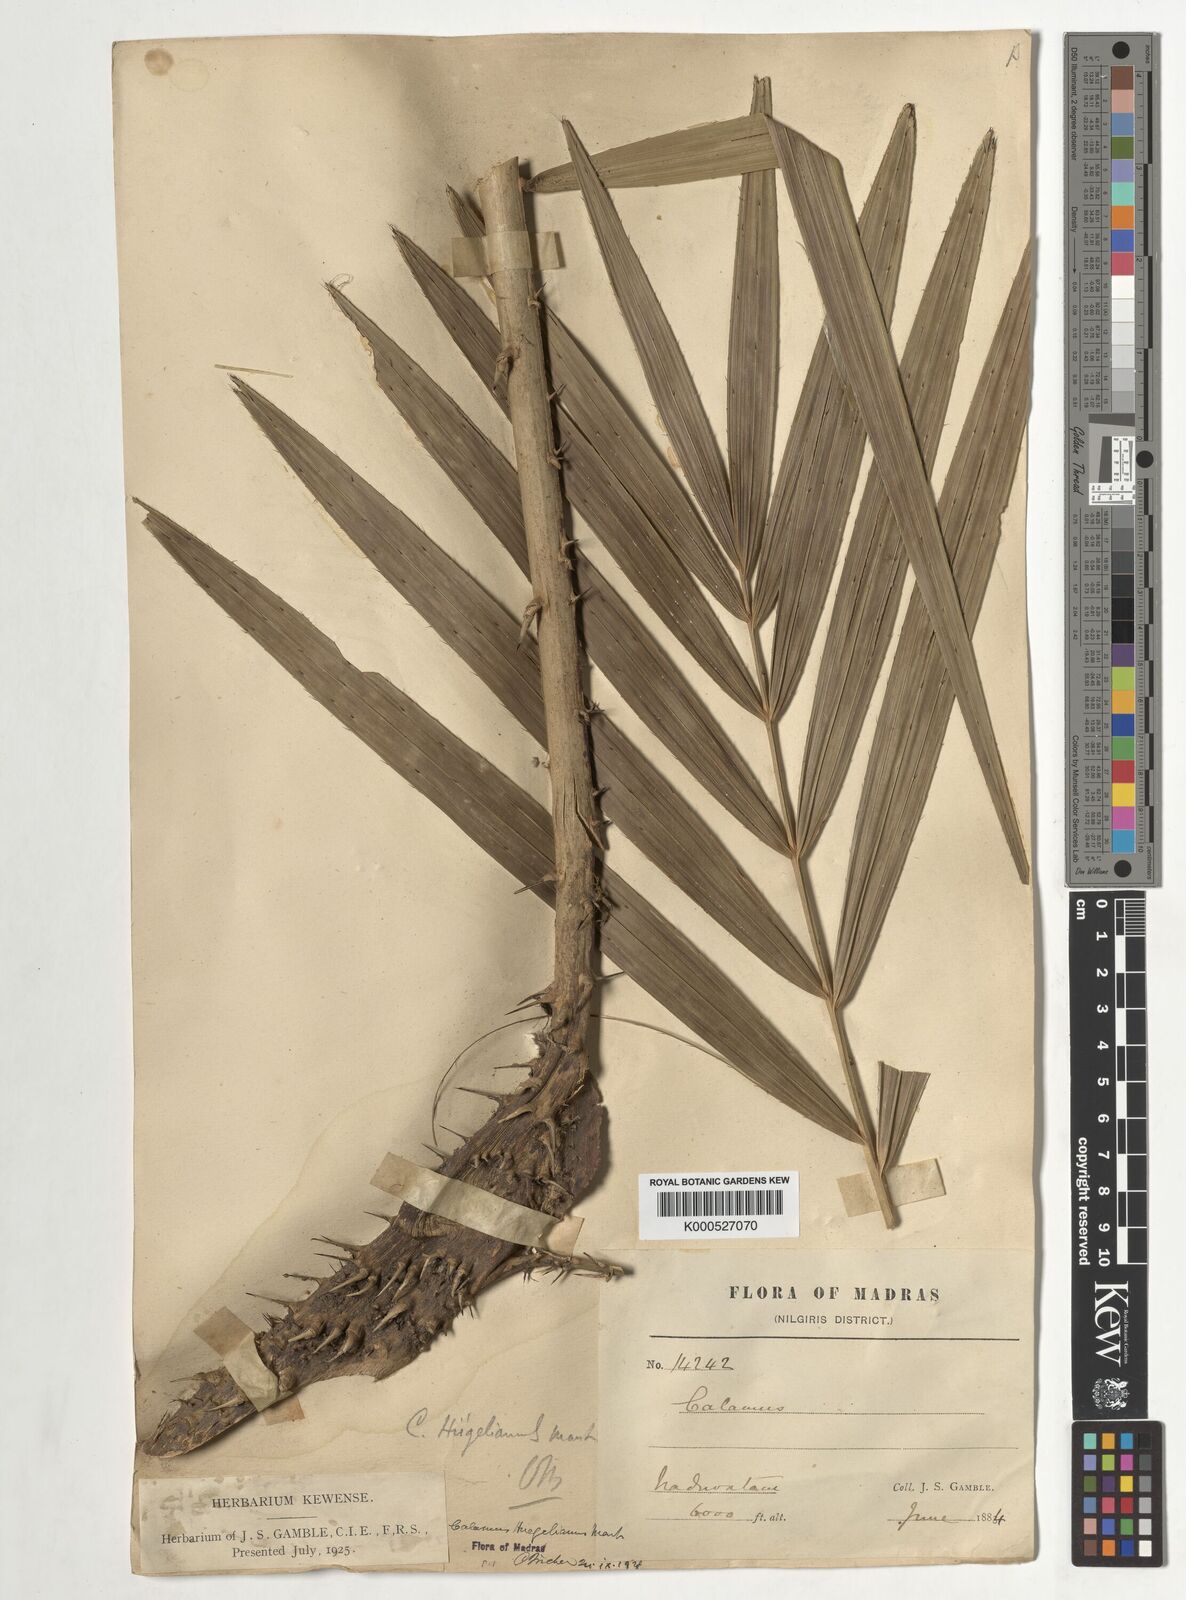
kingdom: Plantae
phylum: Tracheophyta
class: Liliopsida
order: Arecales
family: Arecaceae
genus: Calamus
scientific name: Calamus wightii
